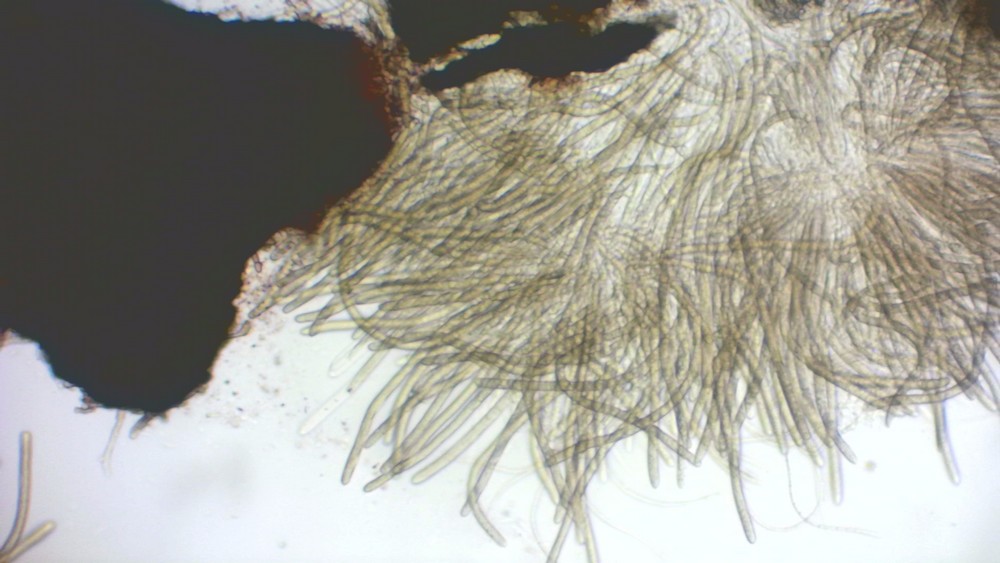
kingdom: Fungi
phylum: Ascomycota
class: Dothideomycetes
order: Dothideales
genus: Leptospora
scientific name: Leptospora rubella
